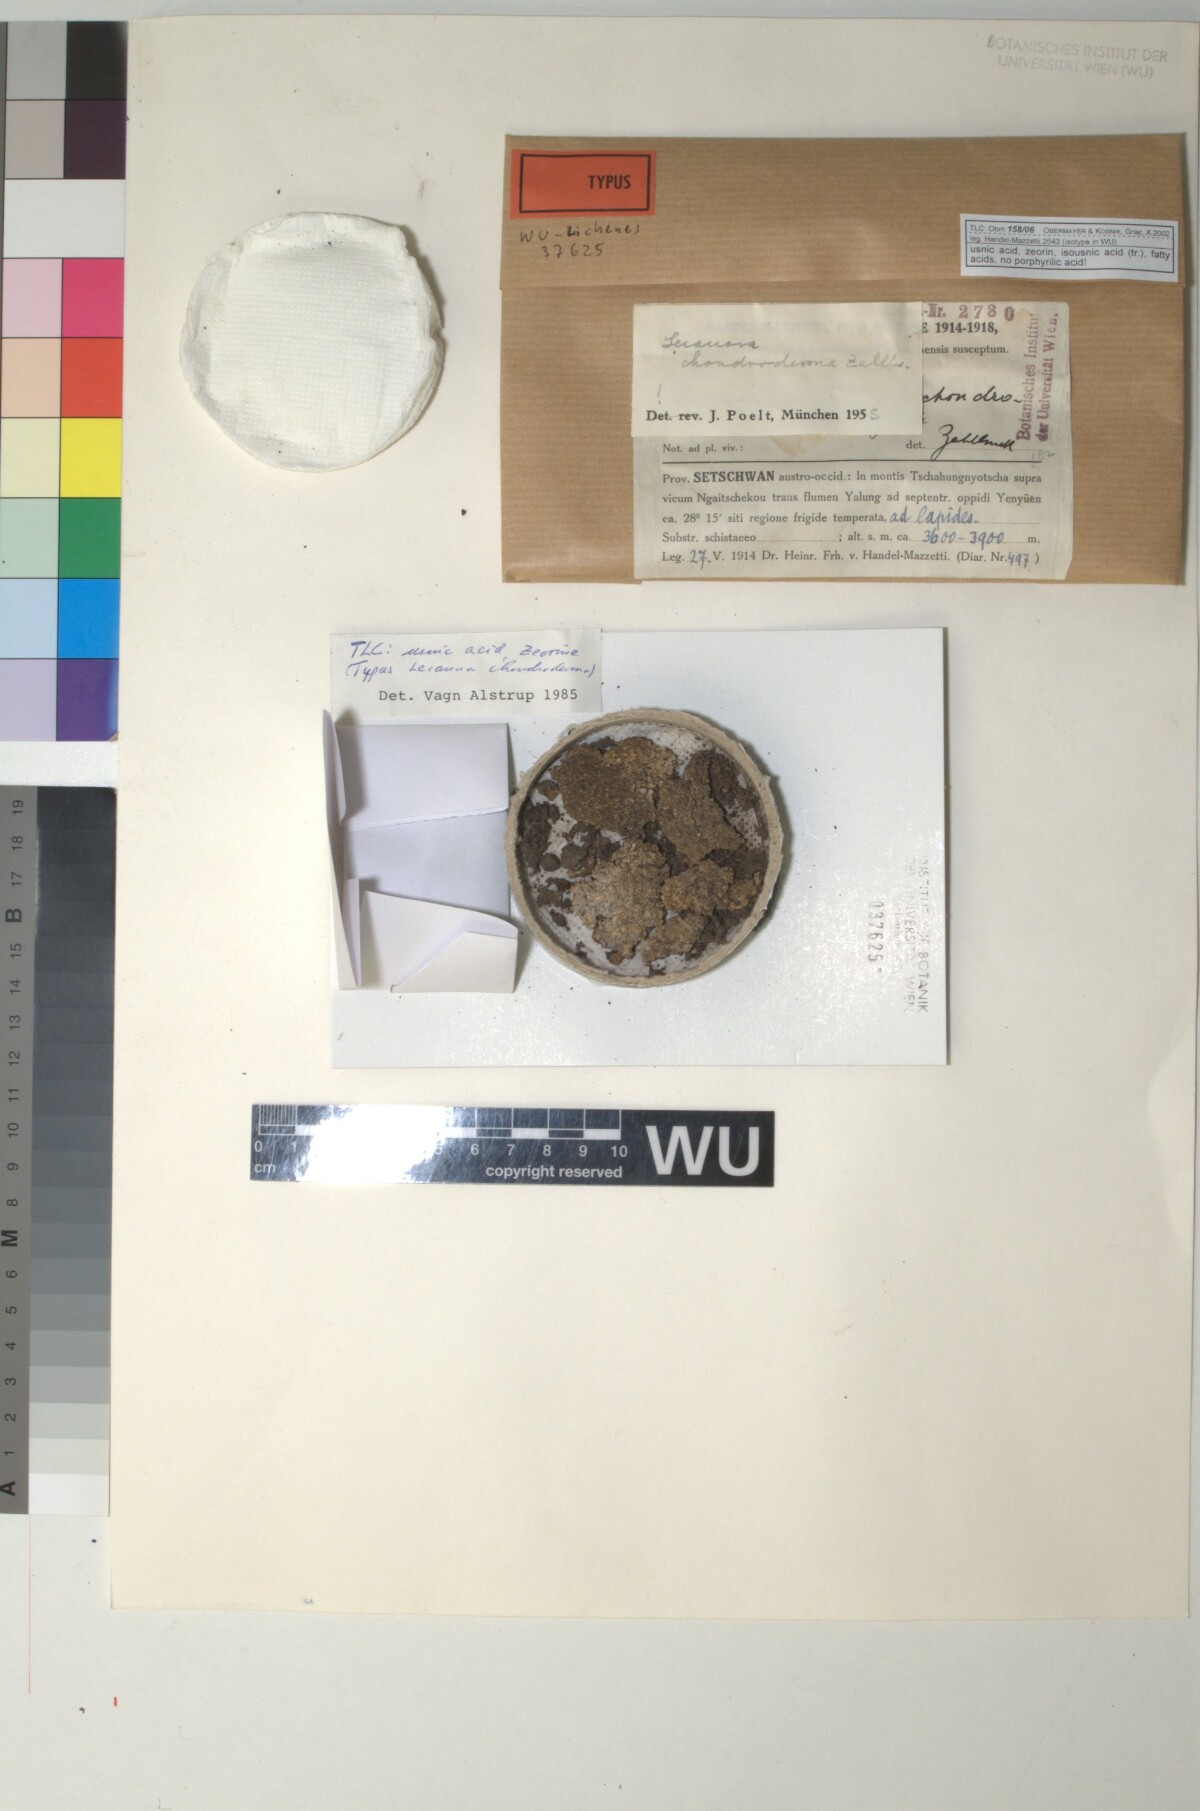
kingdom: Fungi
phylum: Ascomycota
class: Lecanoromycetes
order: Lecanorales
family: Lecanoraceae
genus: Lecanora
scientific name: Lecanora chondroderma
